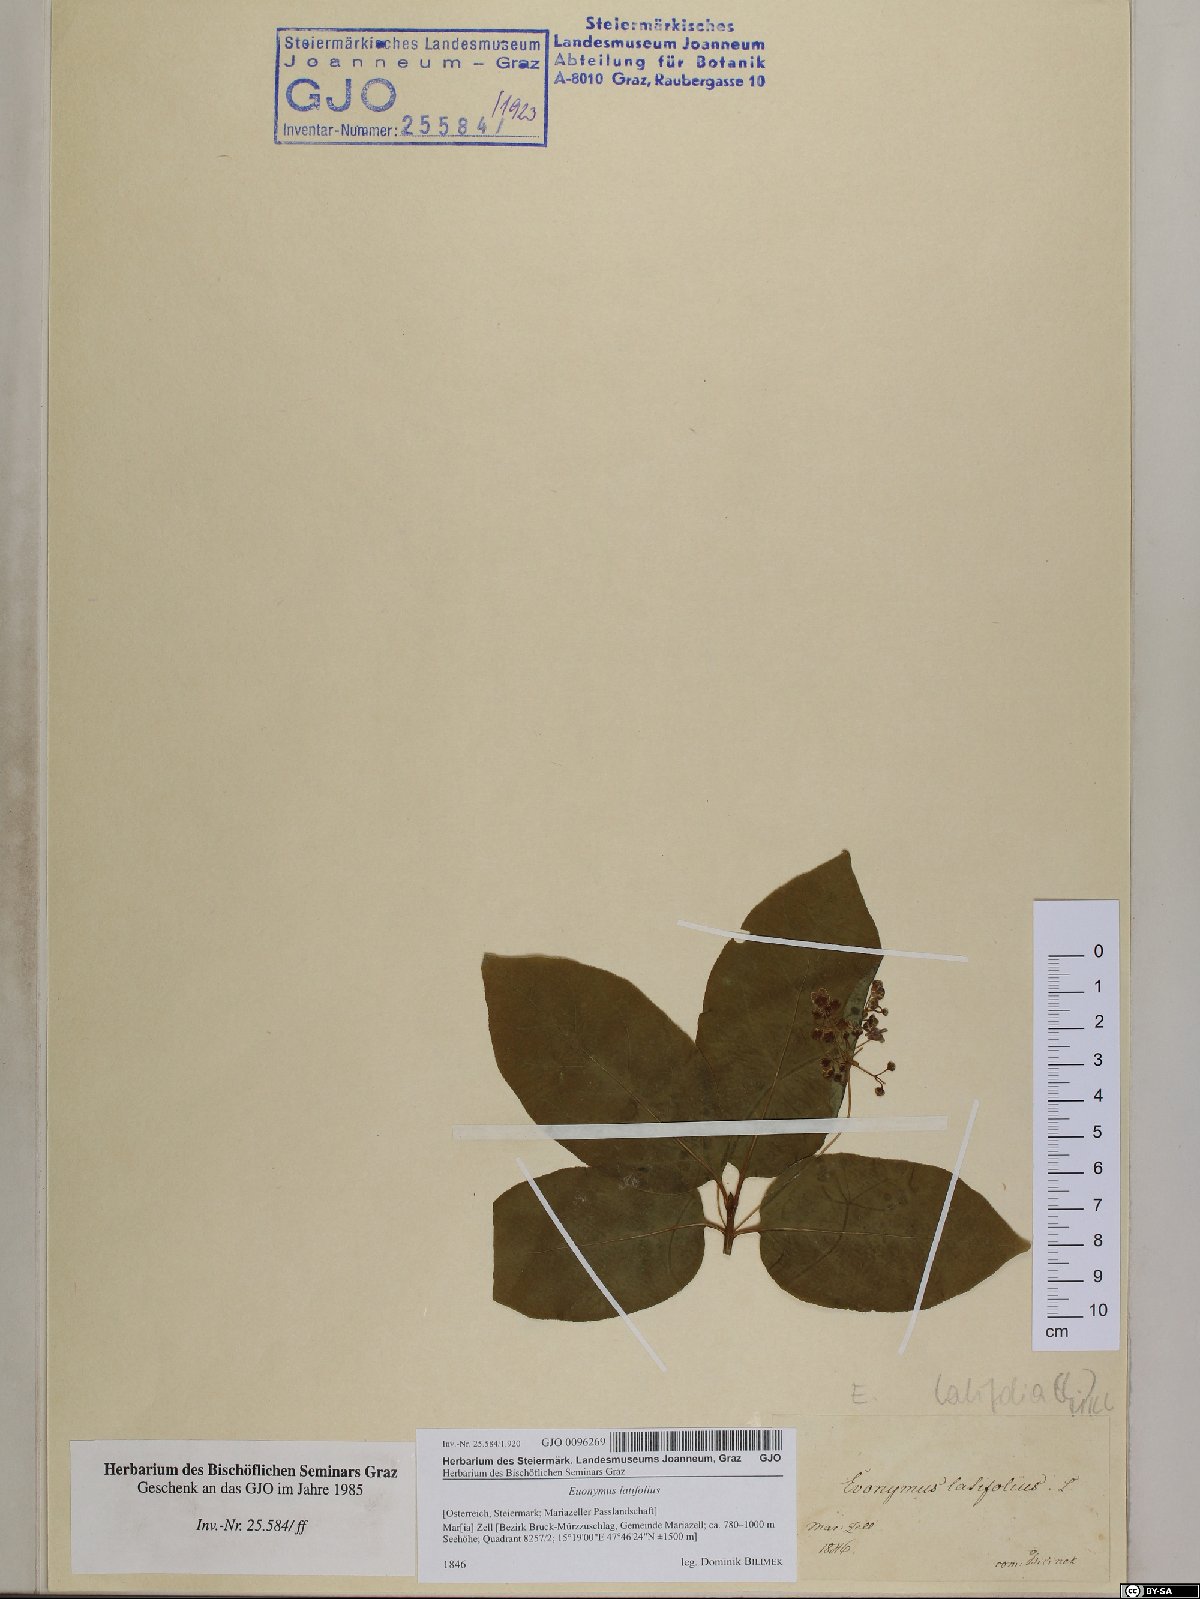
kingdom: Plantae
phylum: Tracheophyta
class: Magnoliopsida
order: Celastrales
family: Celastraceae
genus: Euonymus
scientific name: Euonymus latifolius
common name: Large-leaved spindle
